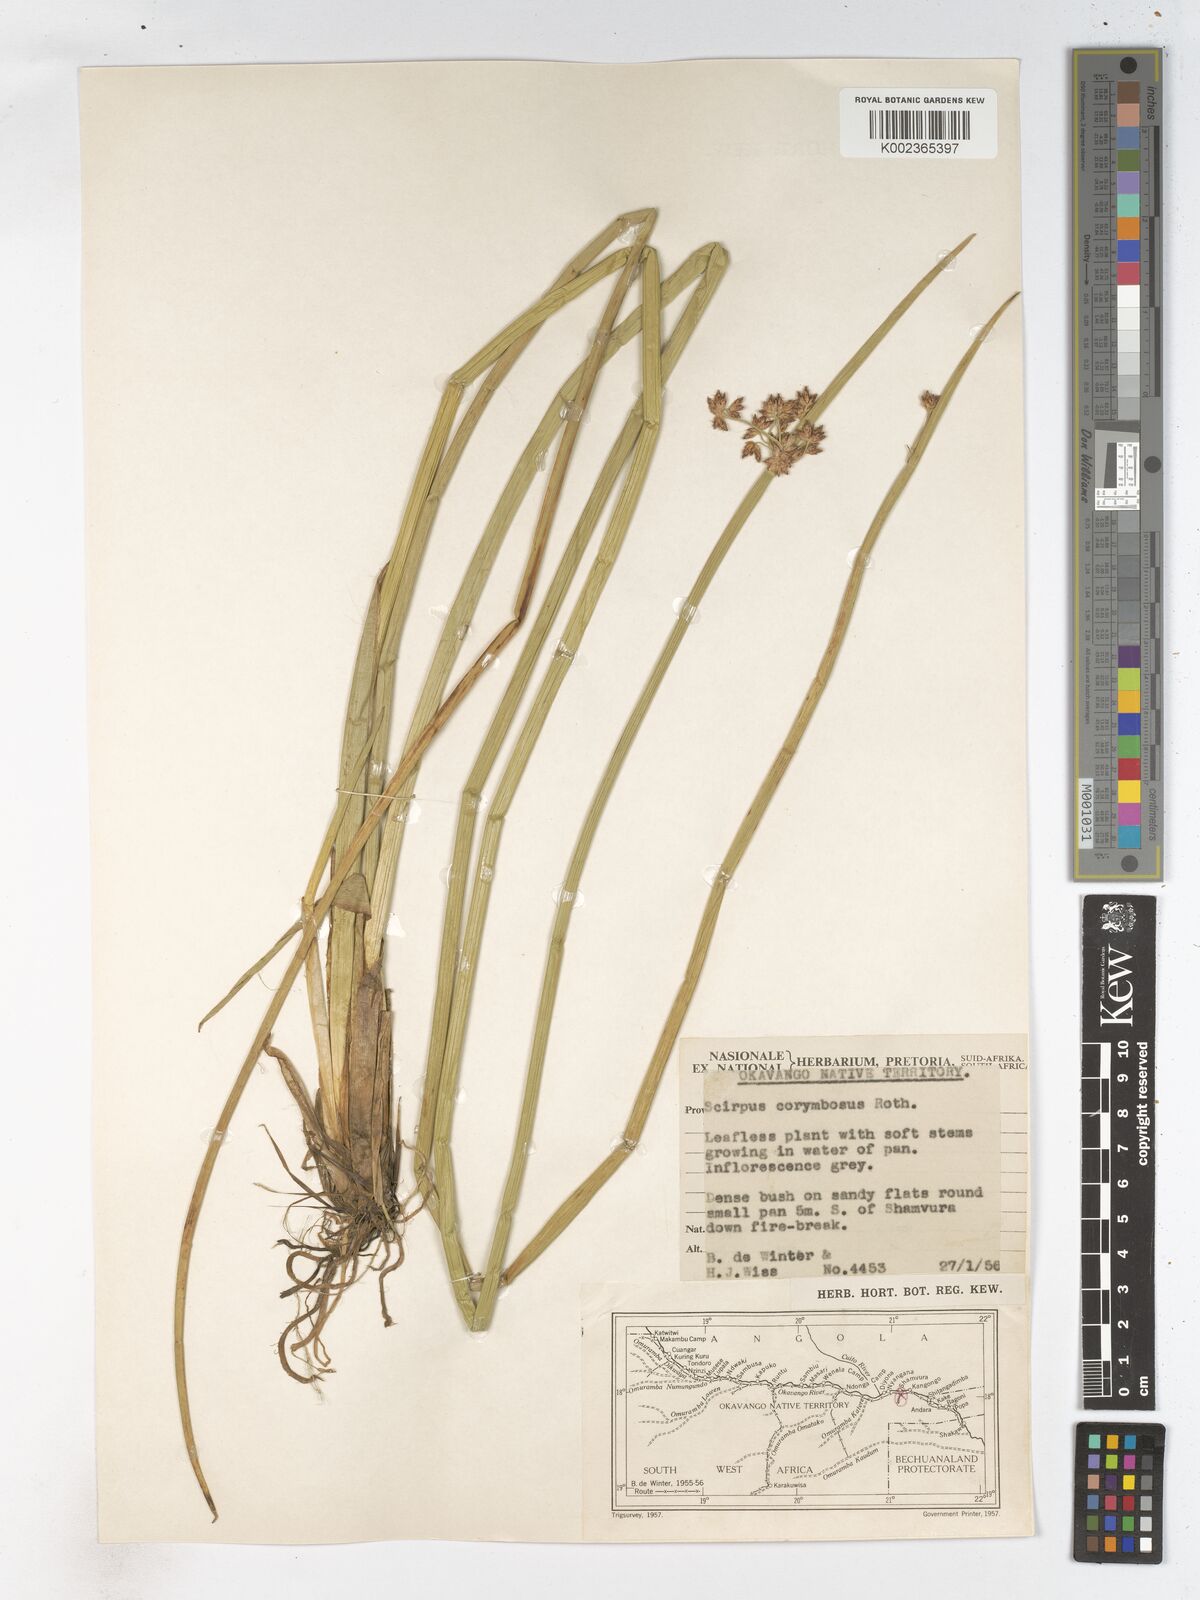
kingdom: Plantae
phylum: Tracheophyta
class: Liliopsida
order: Poales
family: Cyperaceae
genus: Schoenoplectiella
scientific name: Schoenoplectiella brachyceras
